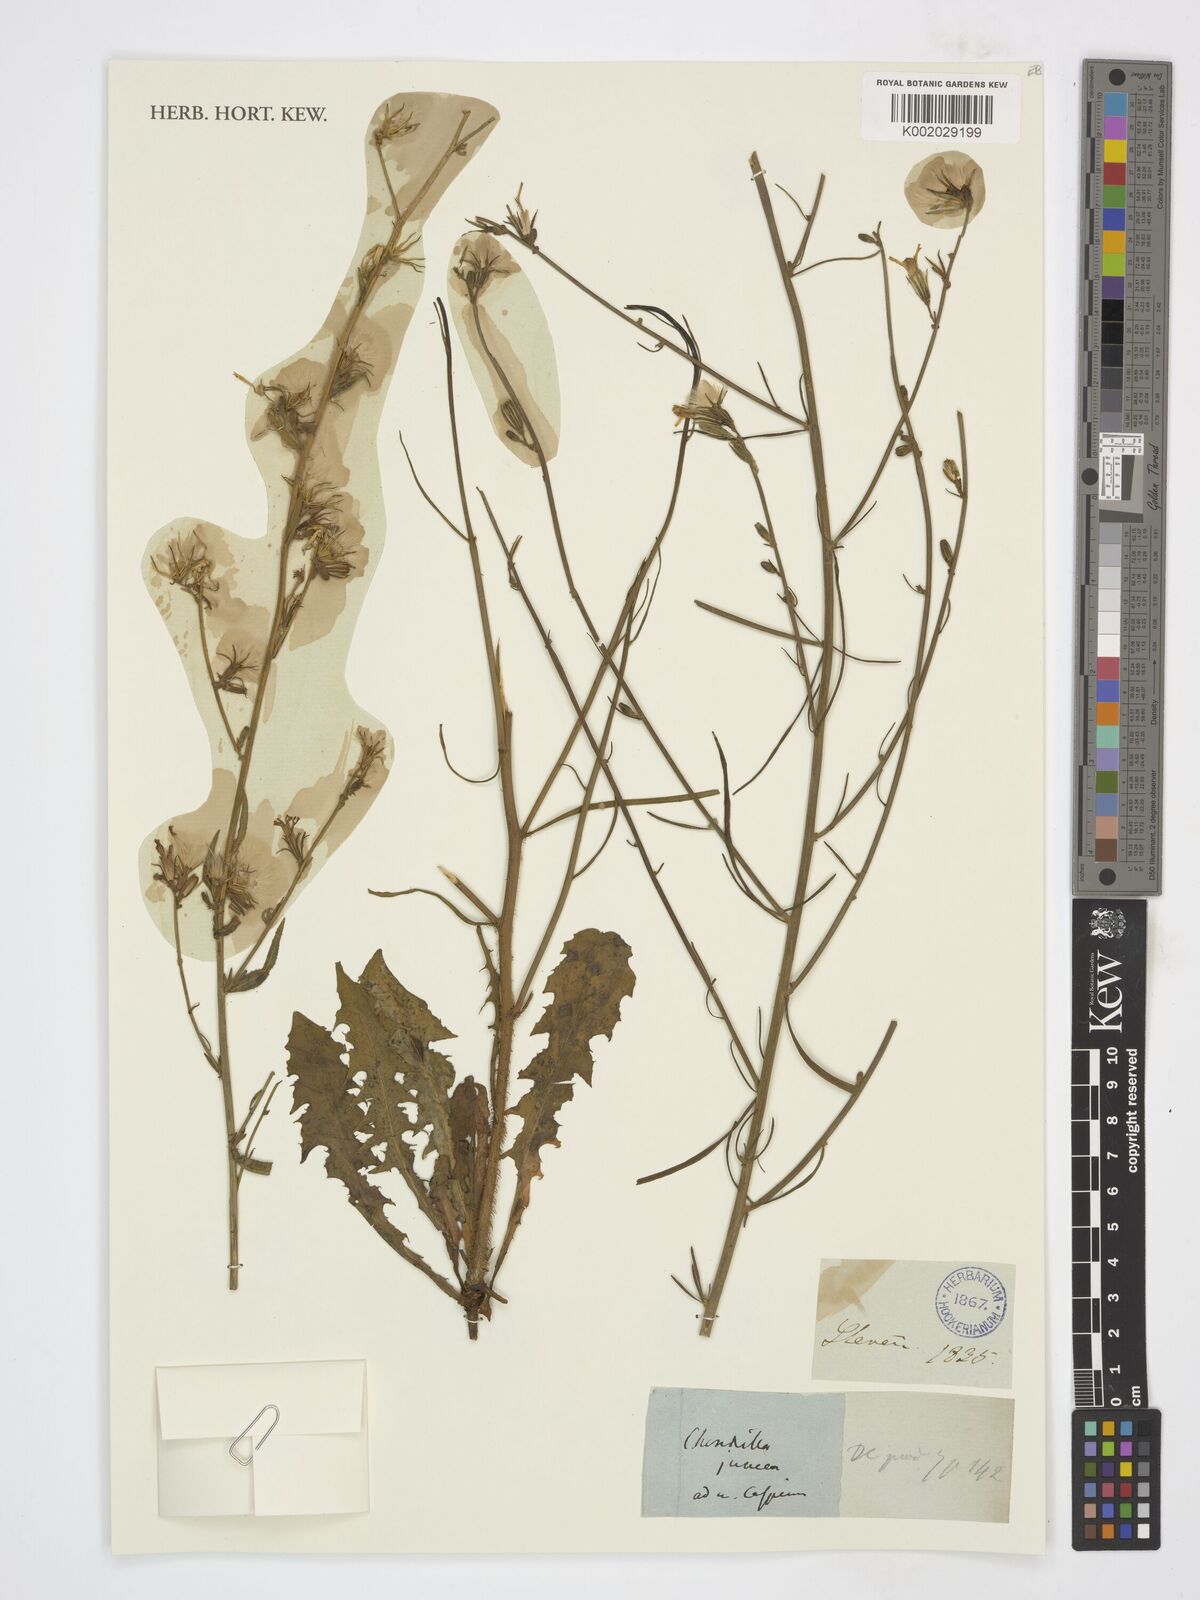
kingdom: Plantae
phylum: Tracheophyta
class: Magnoliopsida
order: Asterales
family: Asteraceae
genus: Chondrilla
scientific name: Chondrilla
